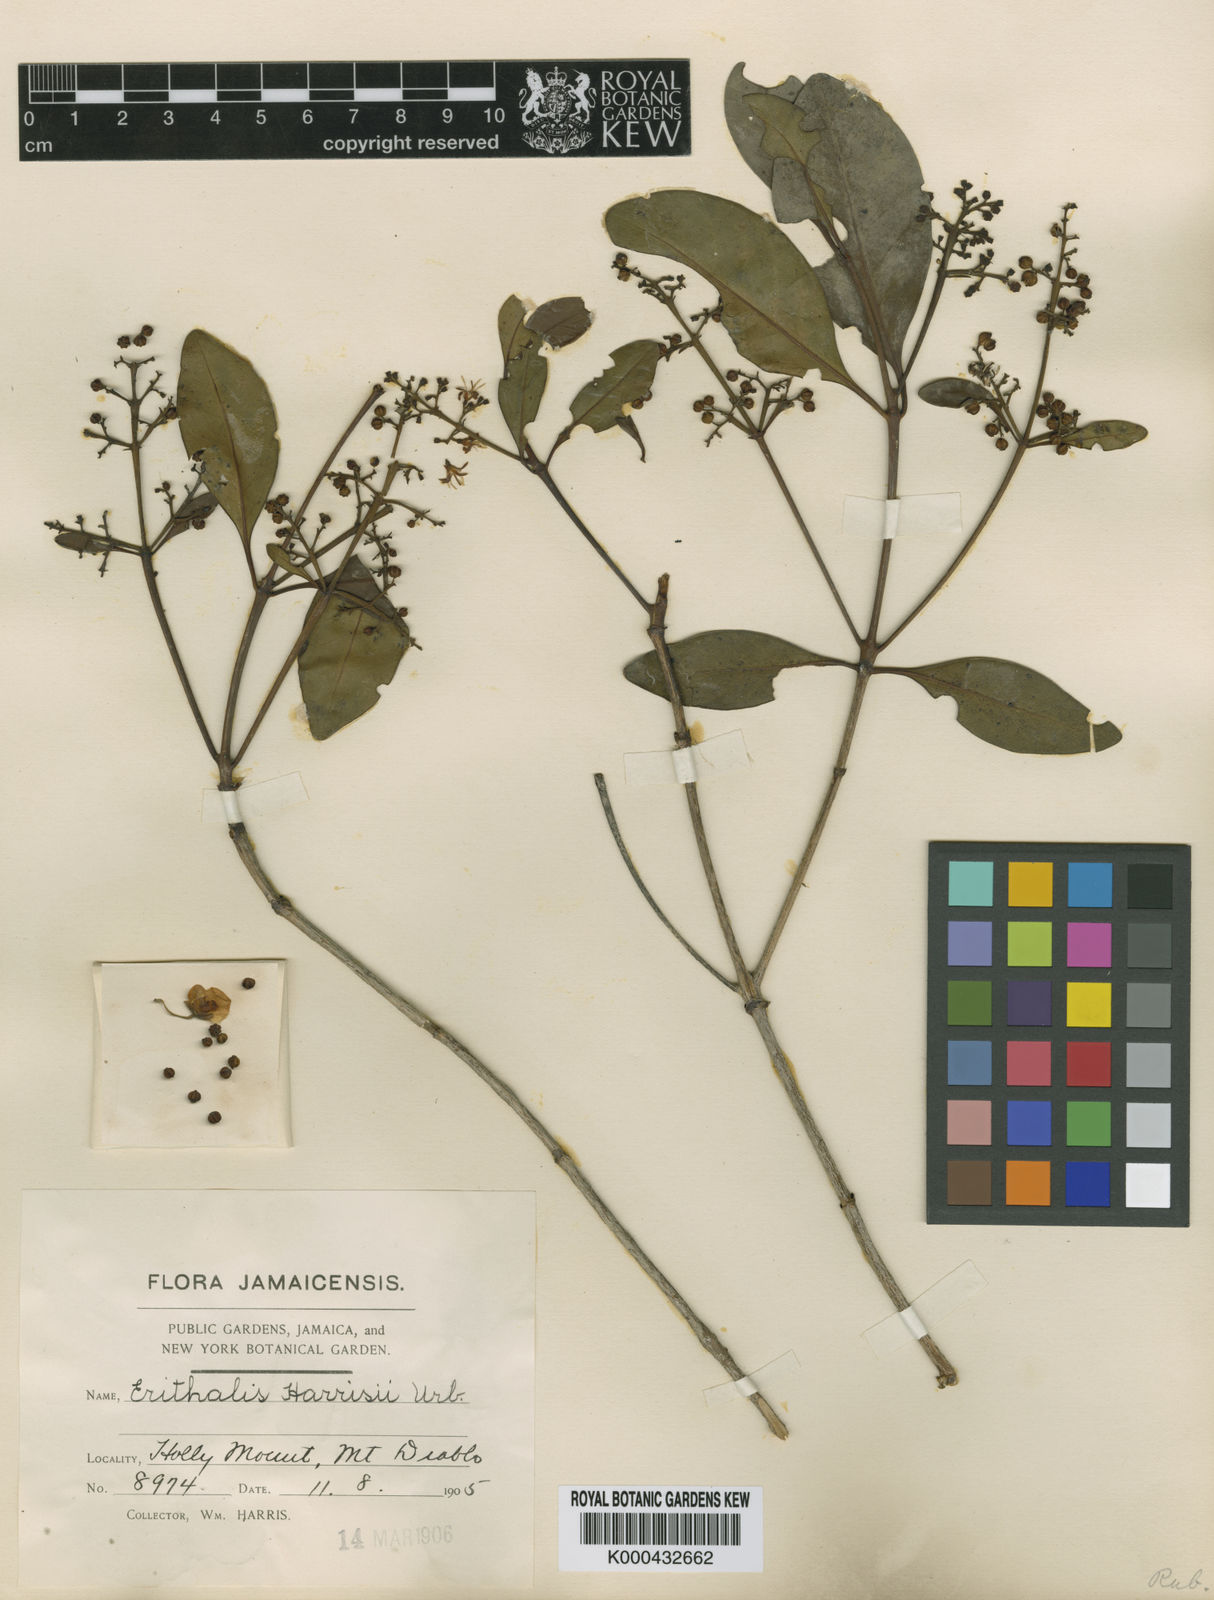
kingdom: Plantae
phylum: Tracheophyta
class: Magnoliopsida
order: Gentianales
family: Rubiaceae
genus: Erithalis
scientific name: Erithalis harrisii
